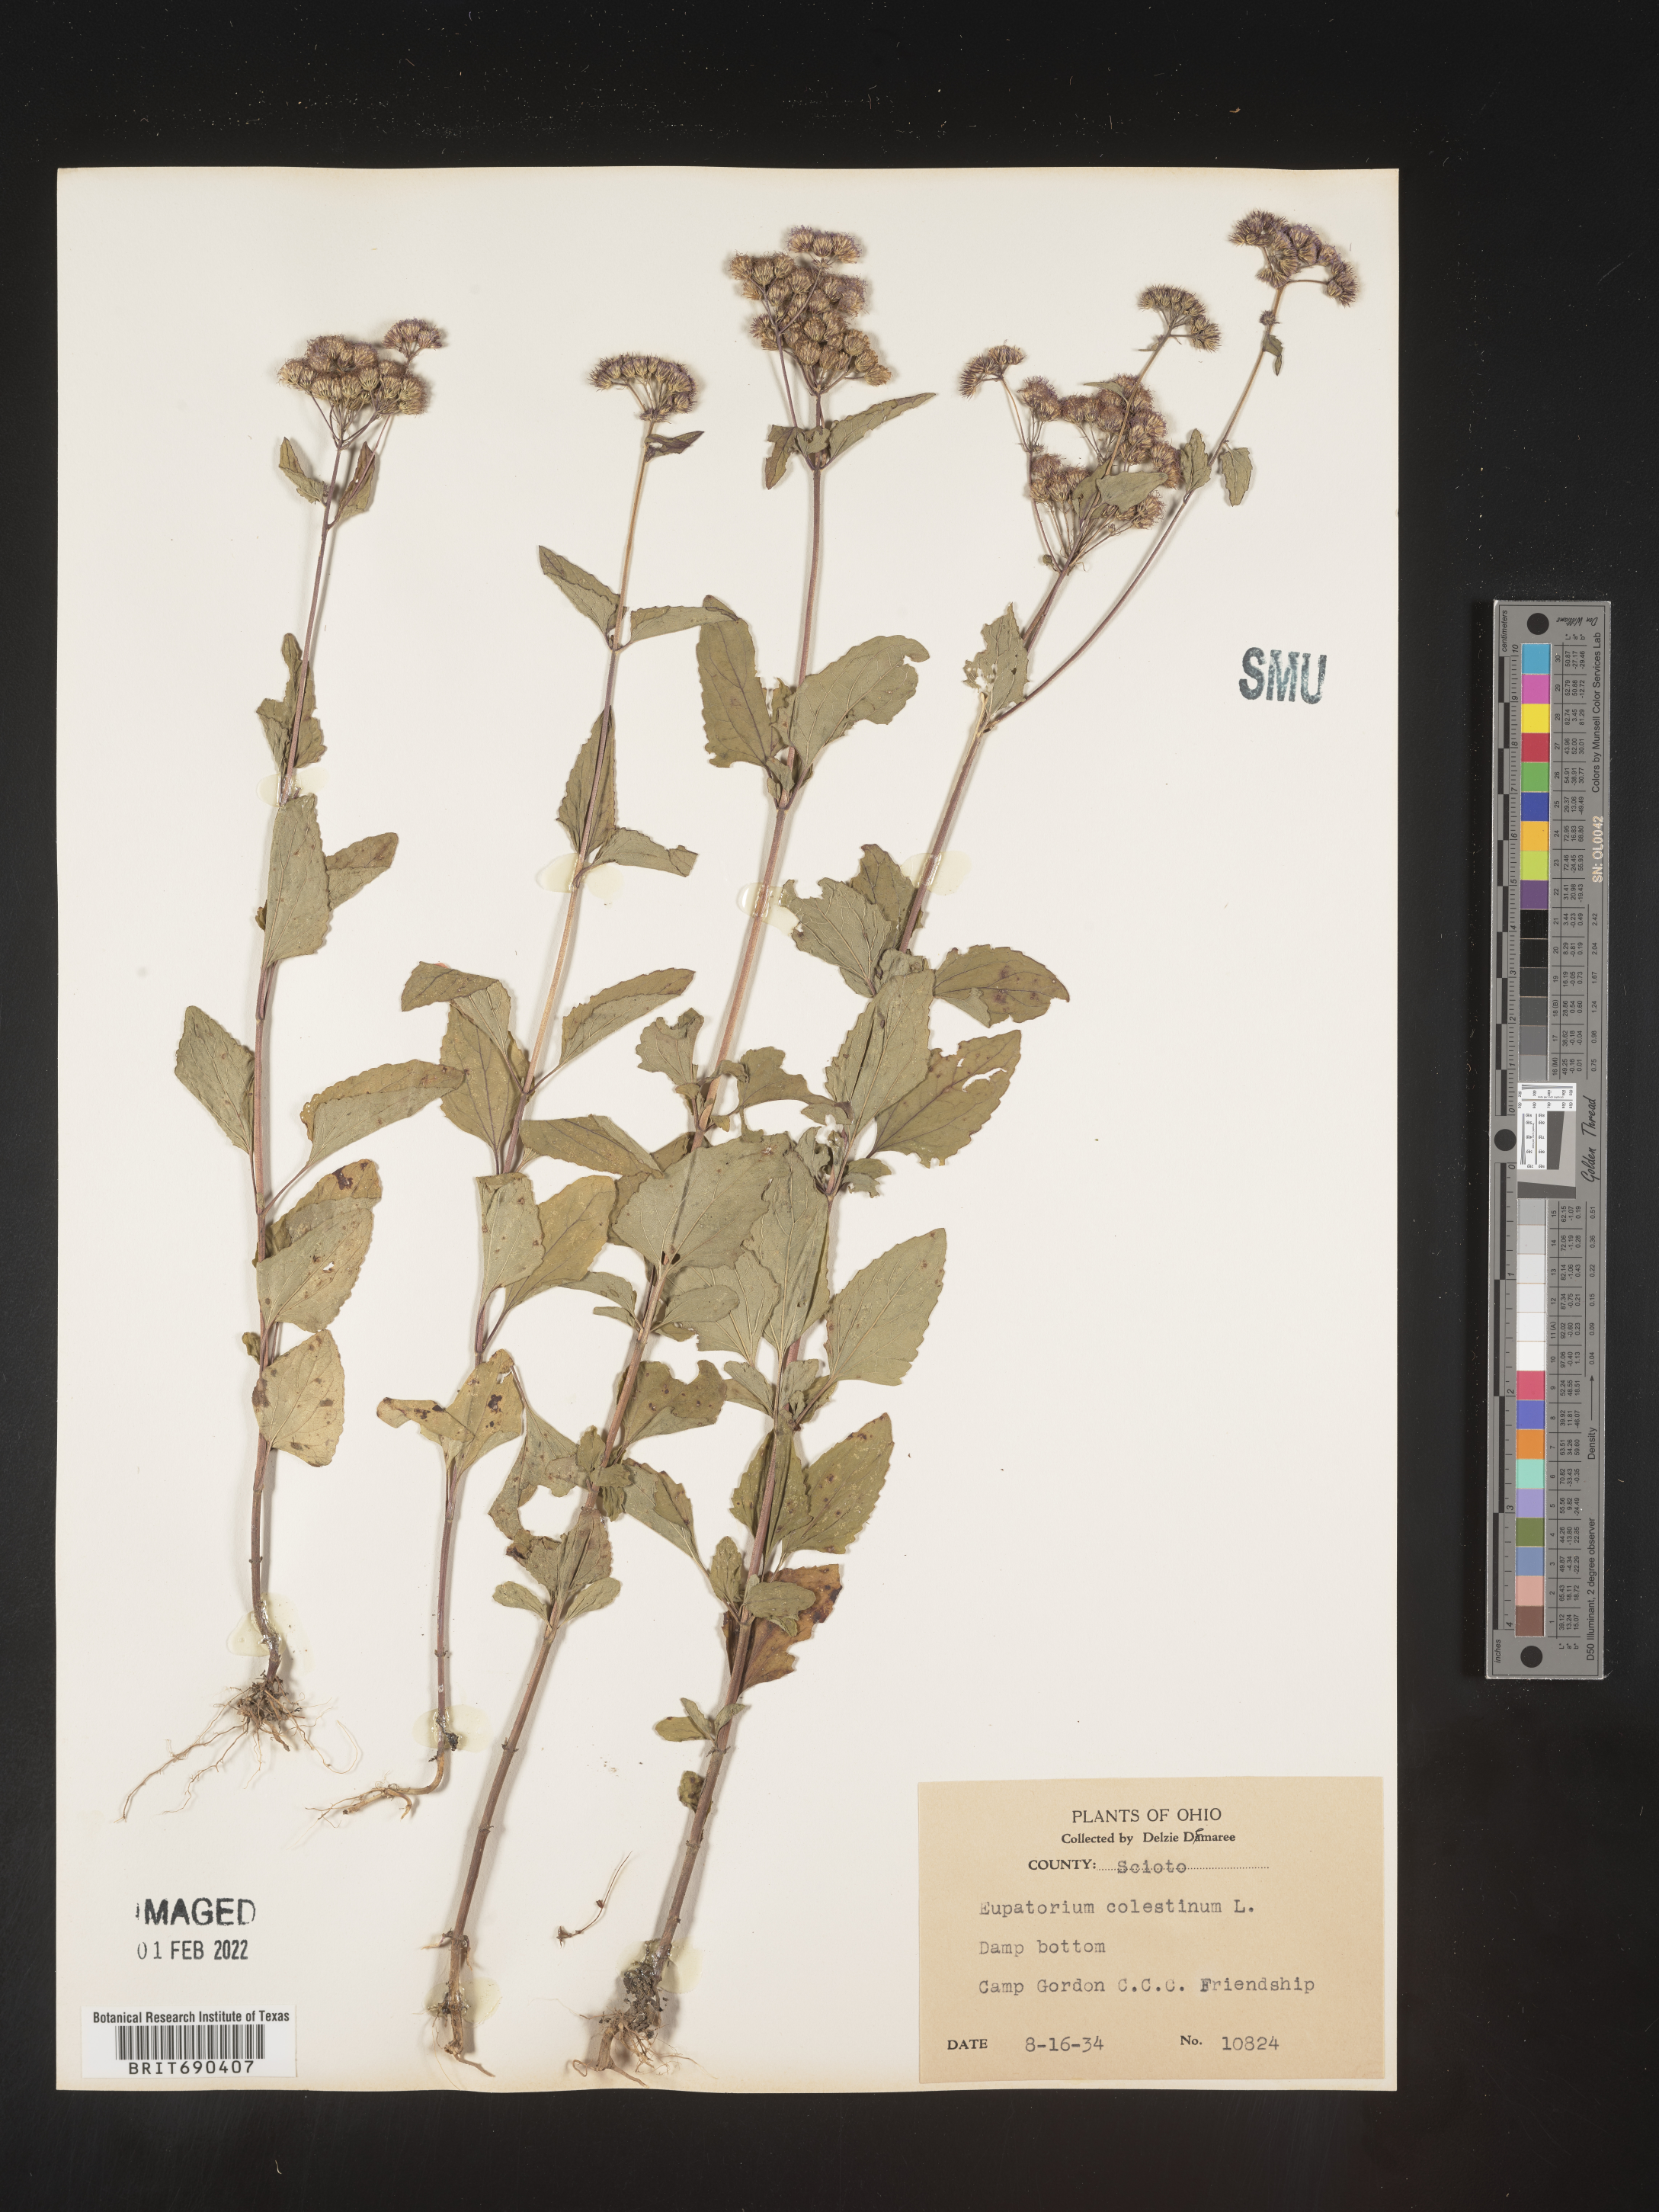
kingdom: Plantae
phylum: Tracheophyta
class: Magnoliopsida
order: Asterales
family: Asteraceae
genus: Conoclinium
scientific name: Conoclinium coelestinum
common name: Blue mistflower
